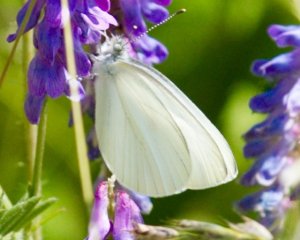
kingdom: Animalia
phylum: Arthropoda
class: Insecta
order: Lepidoptera
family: Pieridae
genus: Pieris
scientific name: Pieris oleracea
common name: Mustard White
